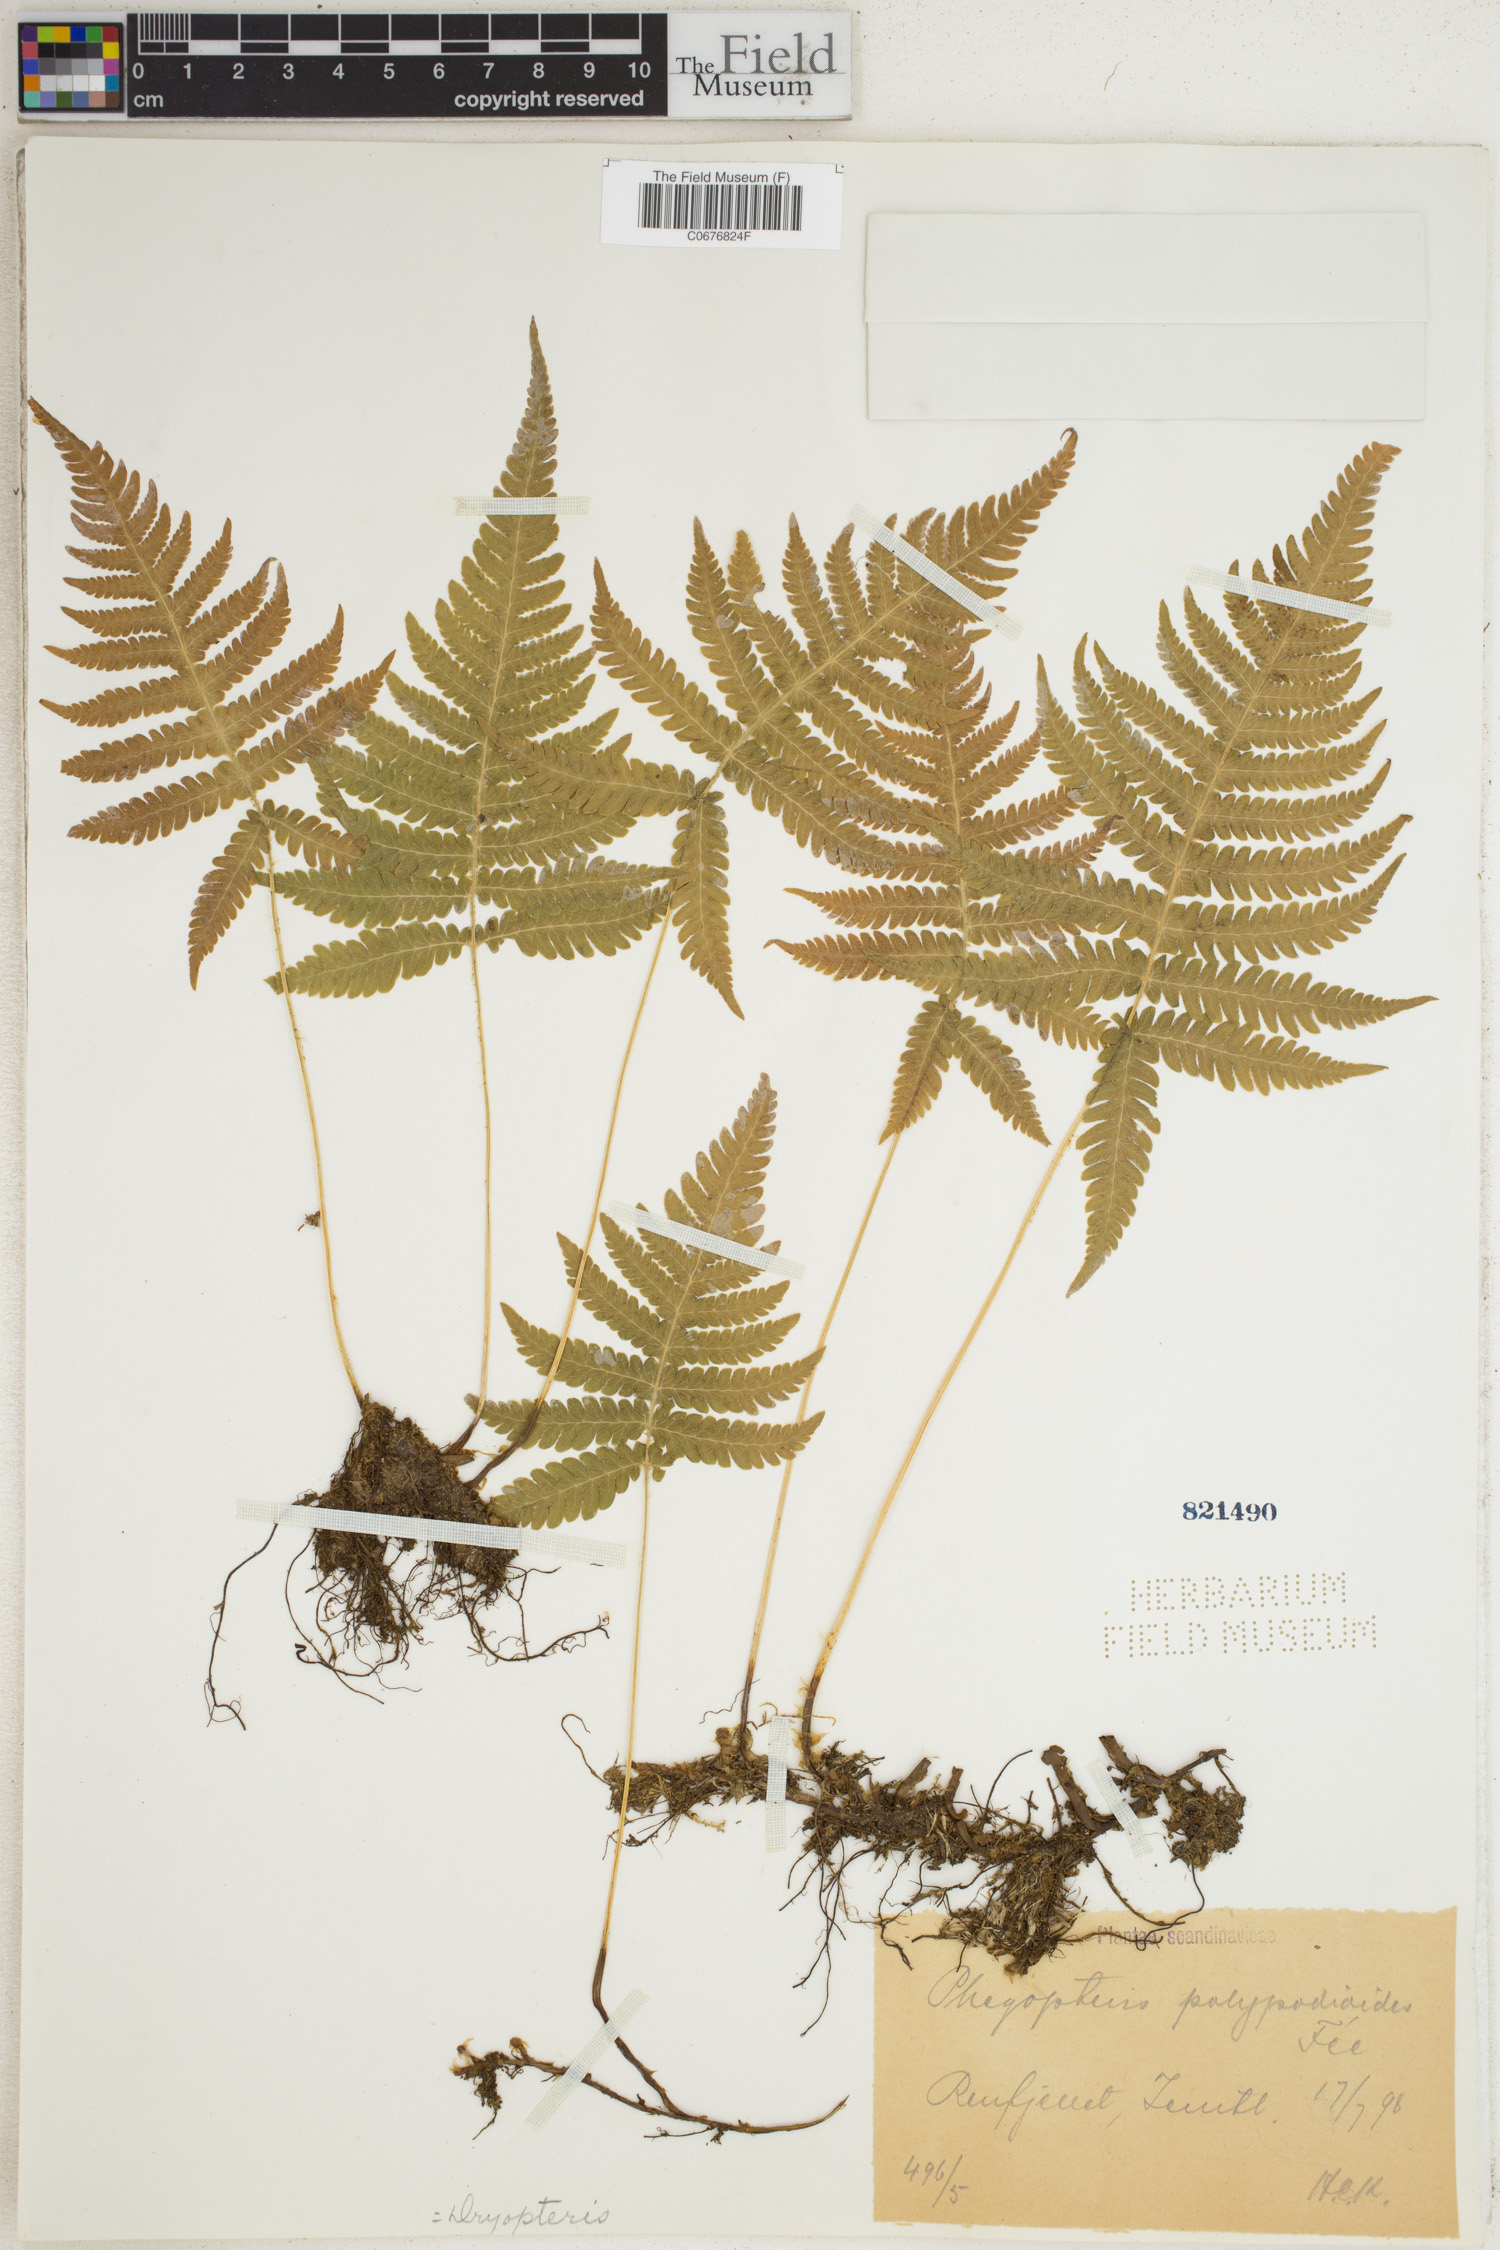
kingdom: Plantae
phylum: Tracheophyta
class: Polypodiopsida
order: Polypodiales
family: Thelypteridaceae
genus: Phegopteris
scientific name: Phegopteris connectilis
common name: Beech fern
